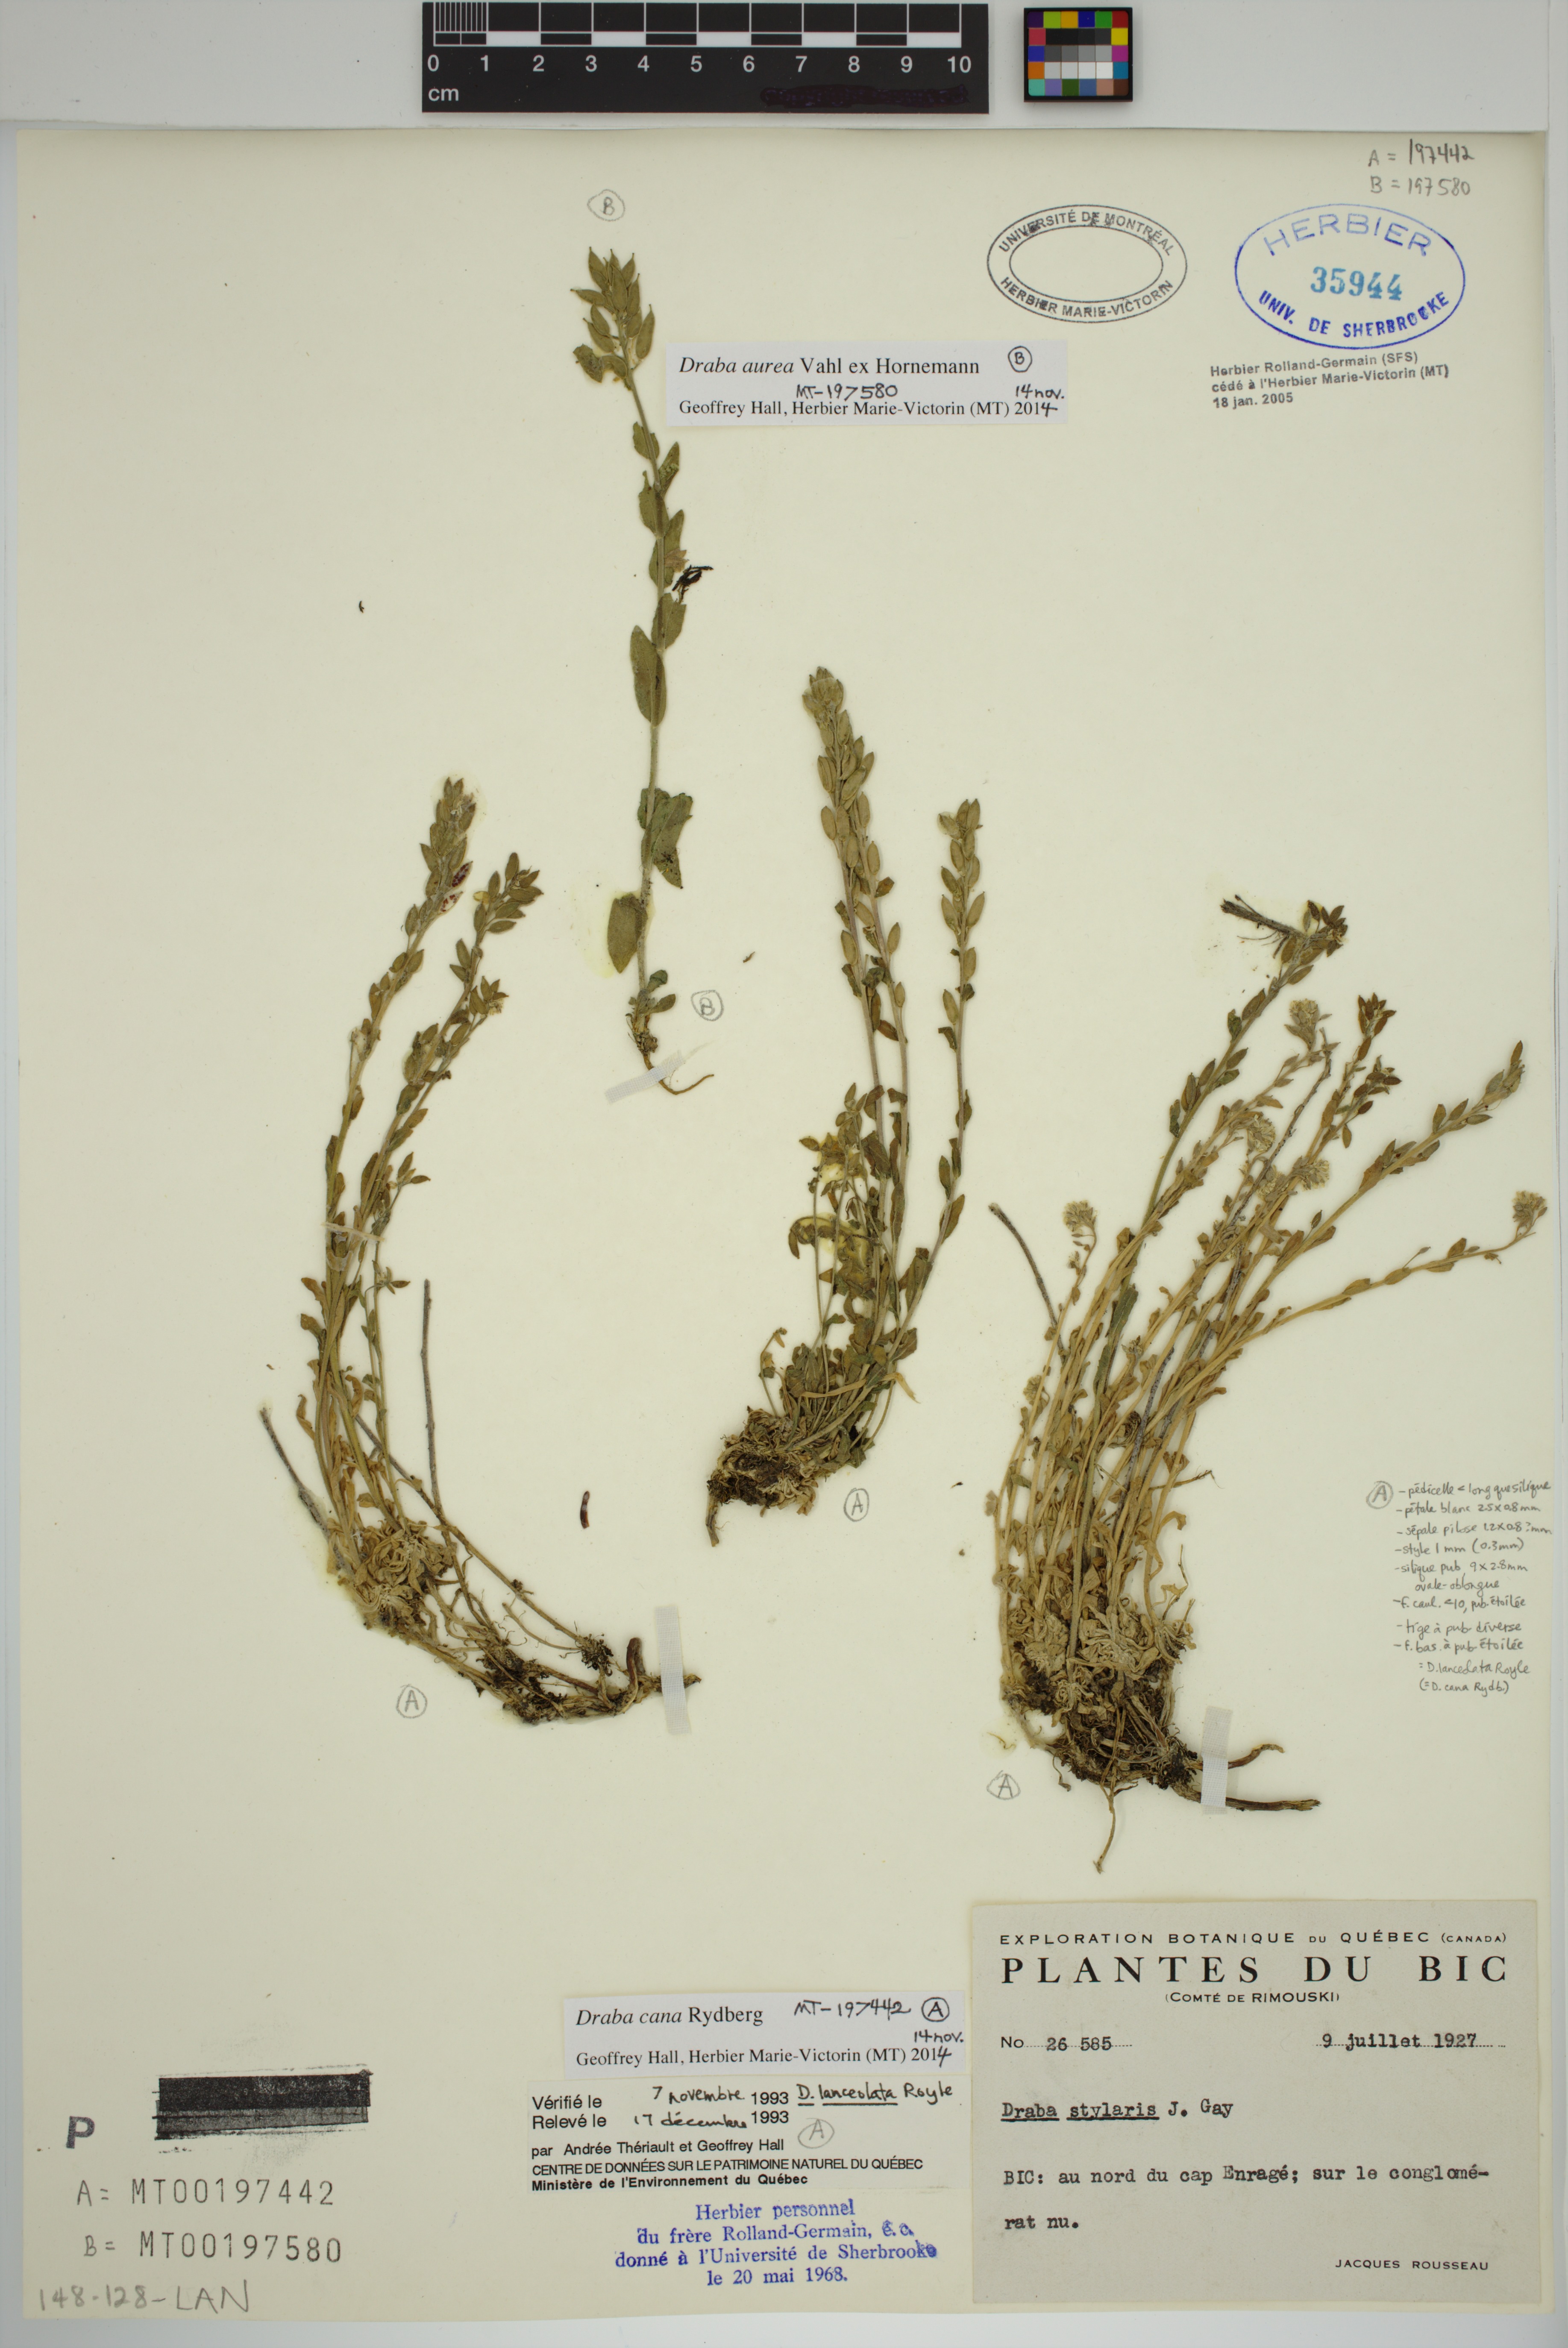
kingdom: Plantae
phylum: Tracheophyta
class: Magnoliopsida
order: Brassicales
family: Brassicaceae
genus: Draba
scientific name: Draba aurea
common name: Golden draba
